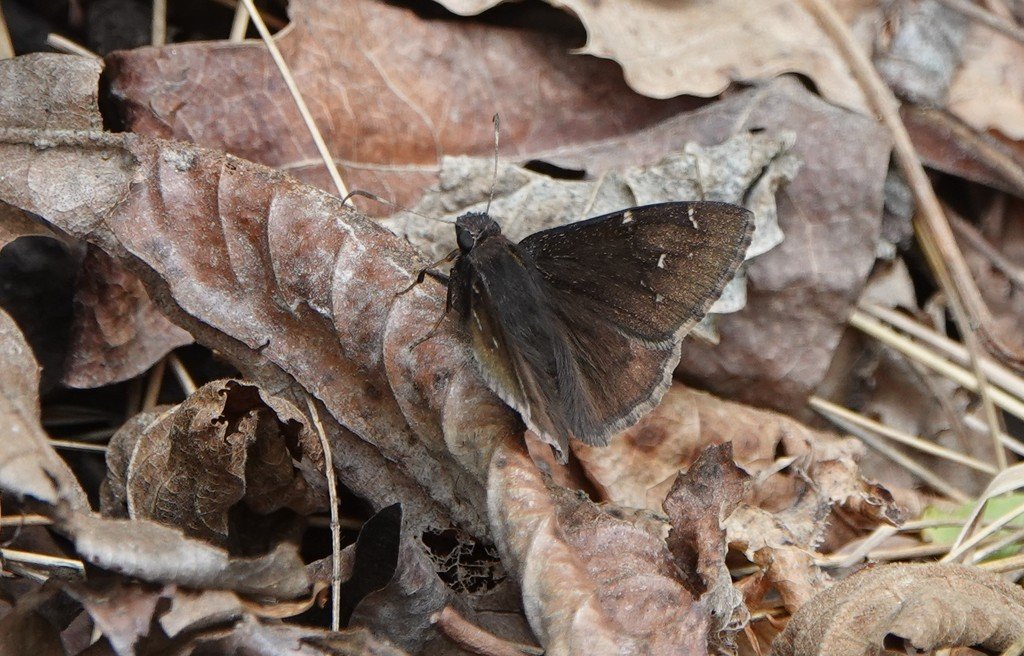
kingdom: Animalia
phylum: Arthropoda
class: Insecta
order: Lepidoptera
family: Hesperiidae
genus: Autochton
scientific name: Autochton
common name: Northern Cloudywing
